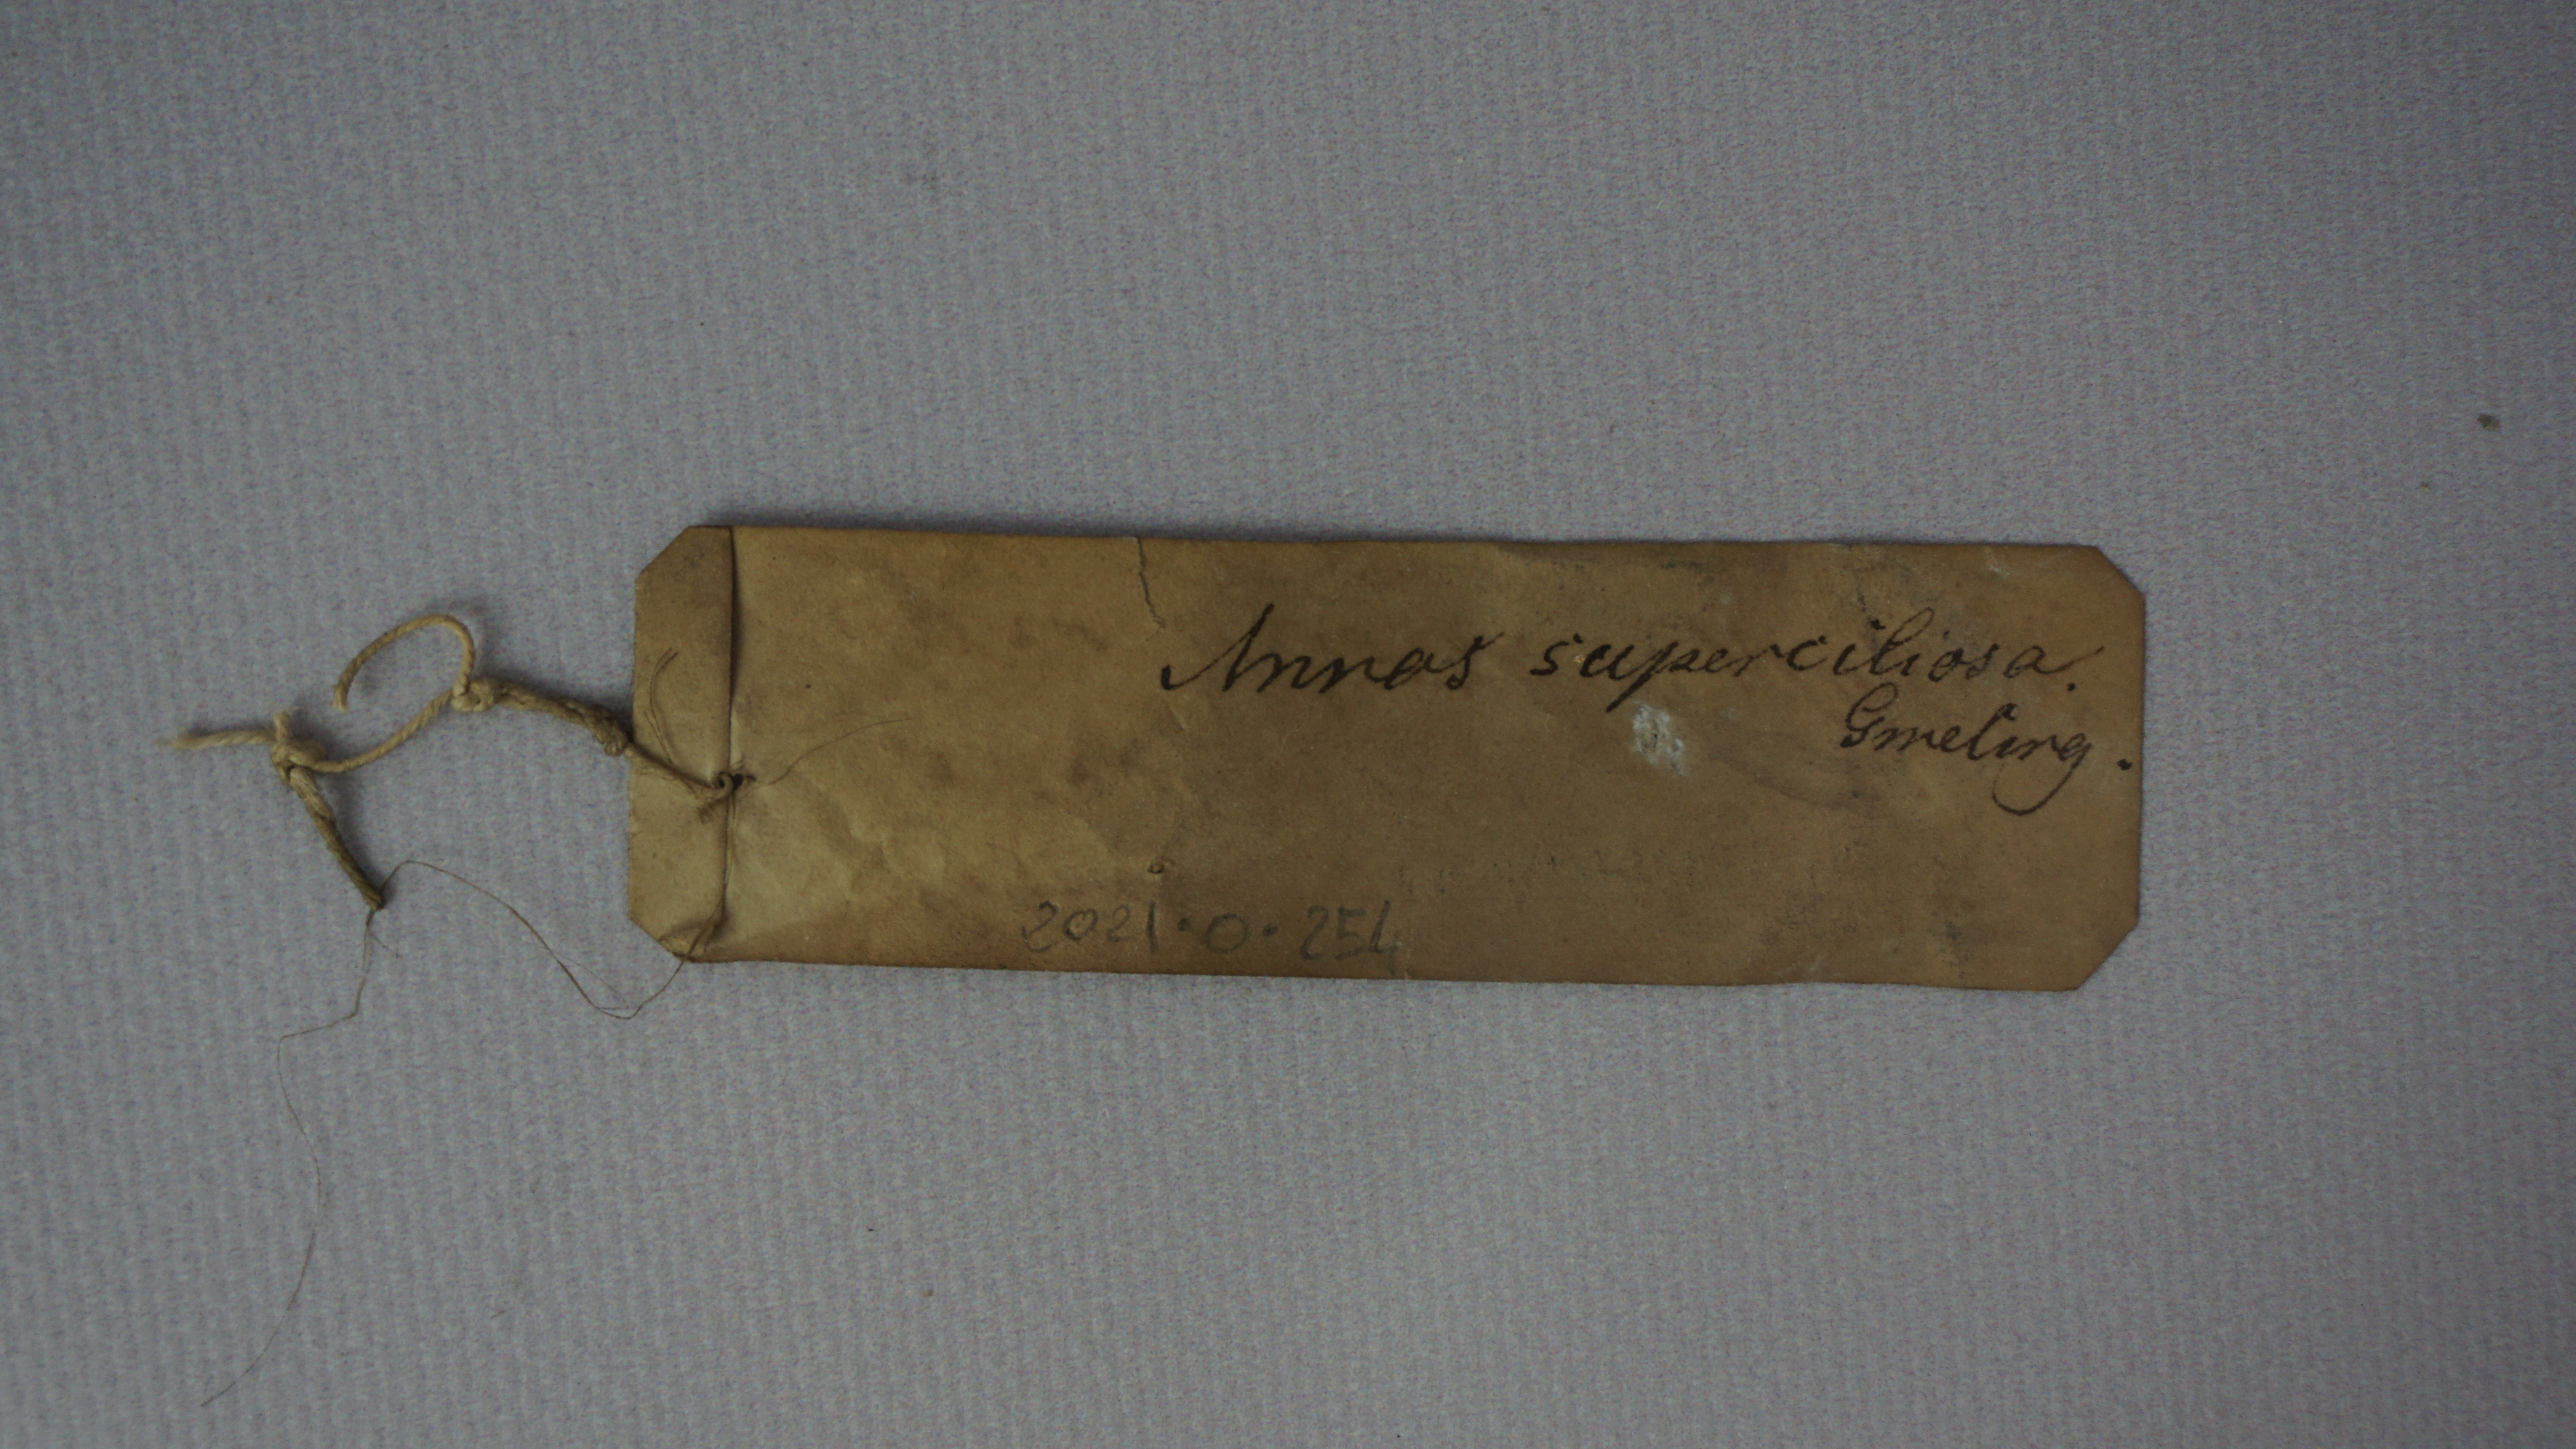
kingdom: Animalia
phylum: Chordata
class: Aves
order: Anseriformes
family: Anatidae
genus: Anas
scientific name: Anas superciliosa
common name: Pacific black duck
